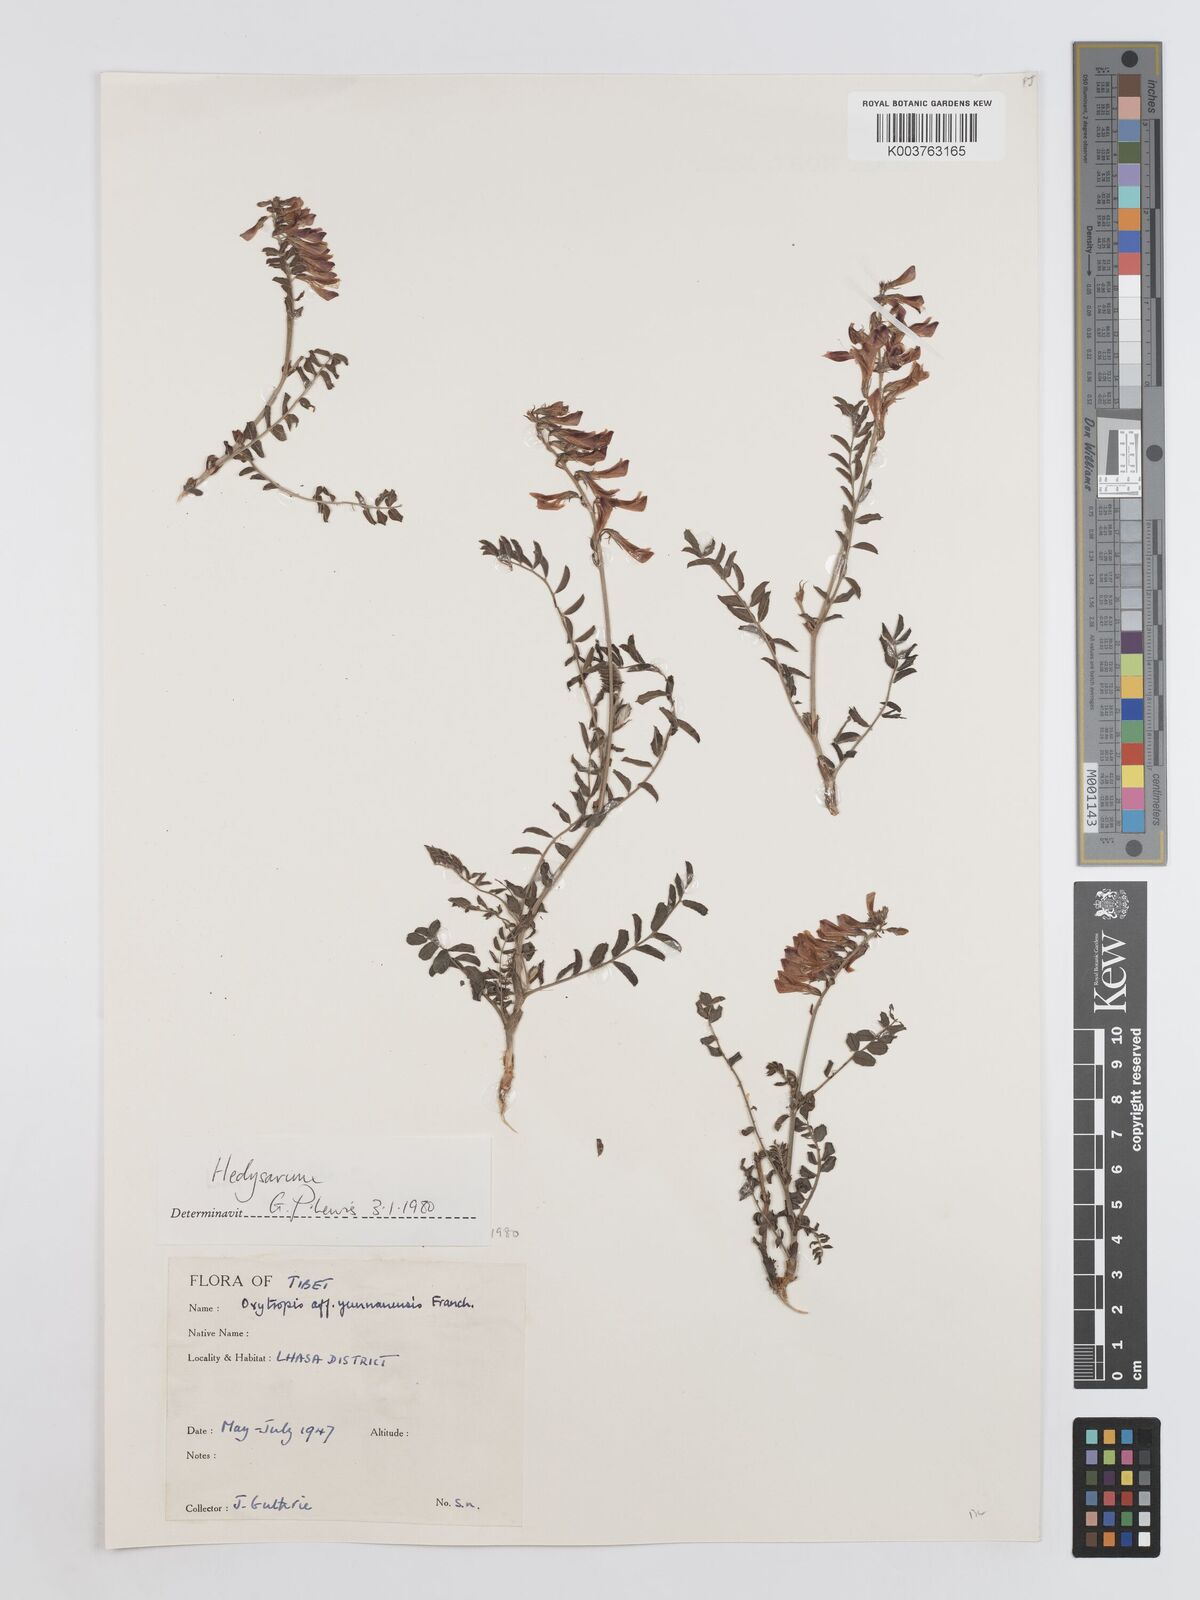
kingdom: Plantae
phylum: Tracheophyta
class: Magnoliopsida
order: Fabales
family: Fabaceae
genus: Hedysarum
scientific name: Hedysarum
